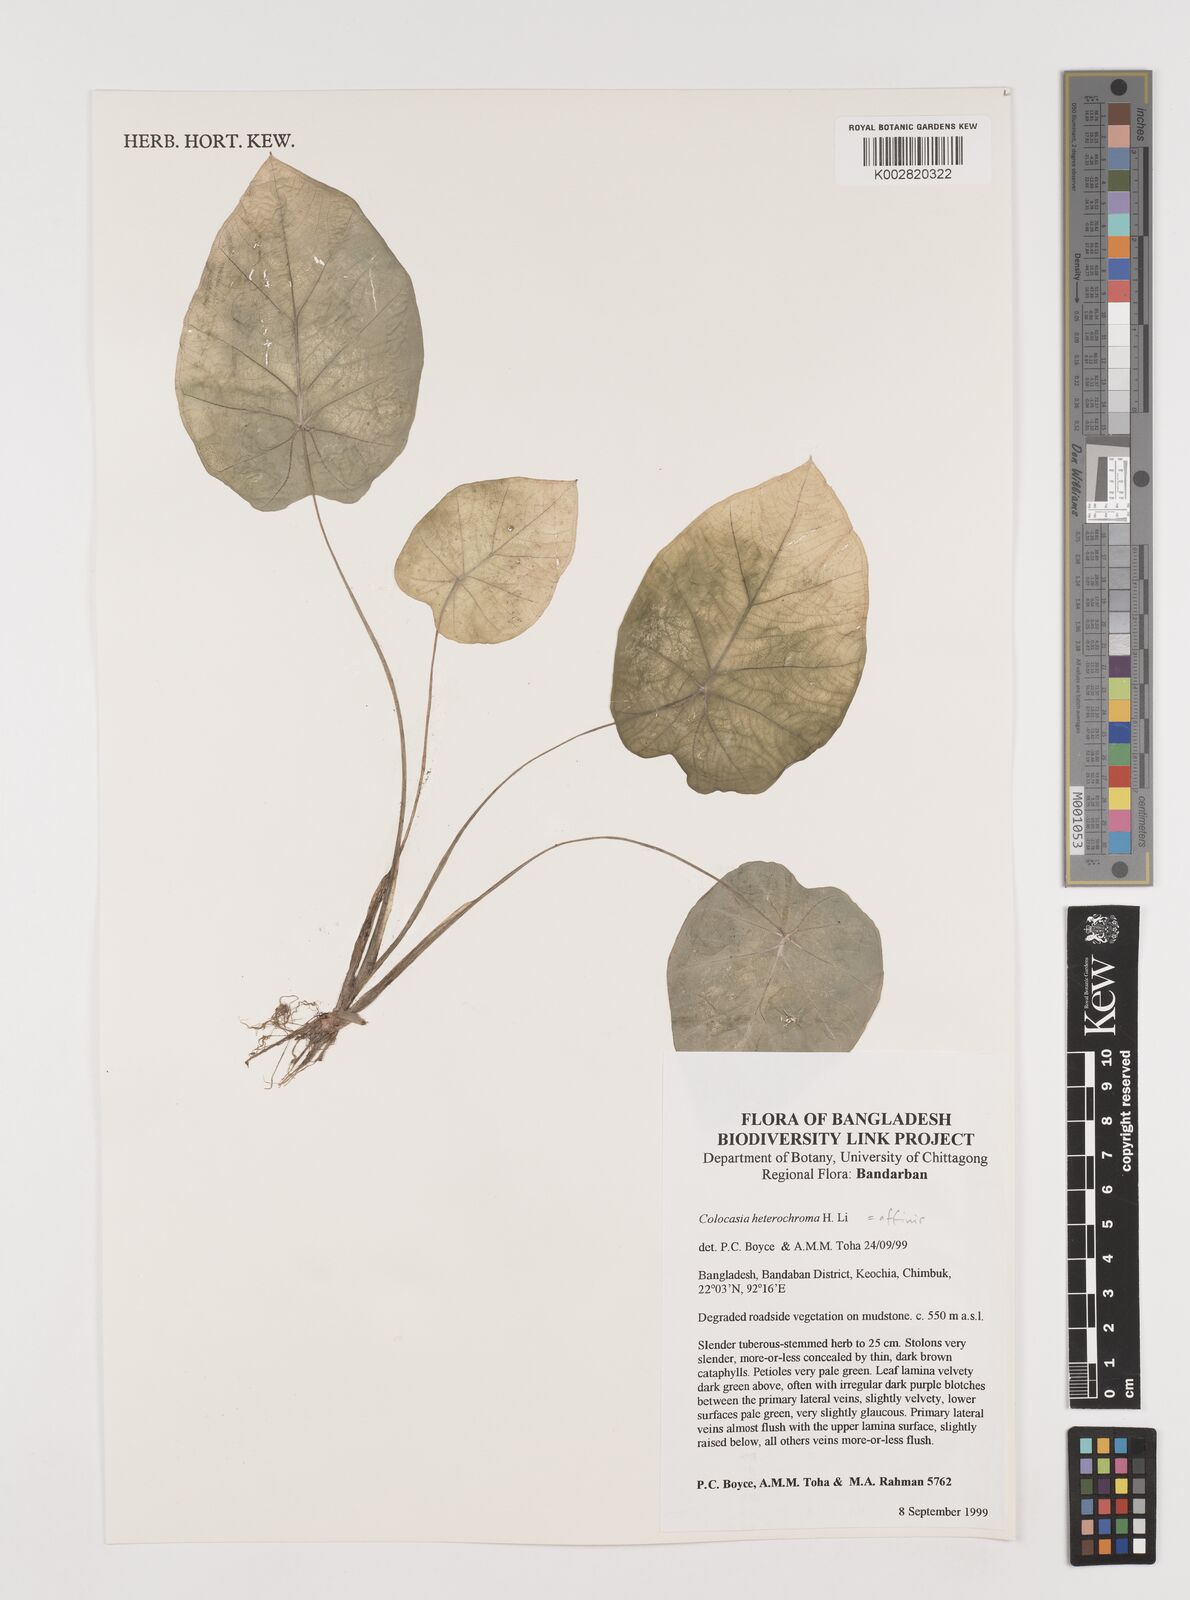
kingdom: Plantae
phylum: Tracheophyta
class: Liliopsida
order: Alismatales
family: Araceae
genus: Colocasia
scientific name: Colocasia affinis
